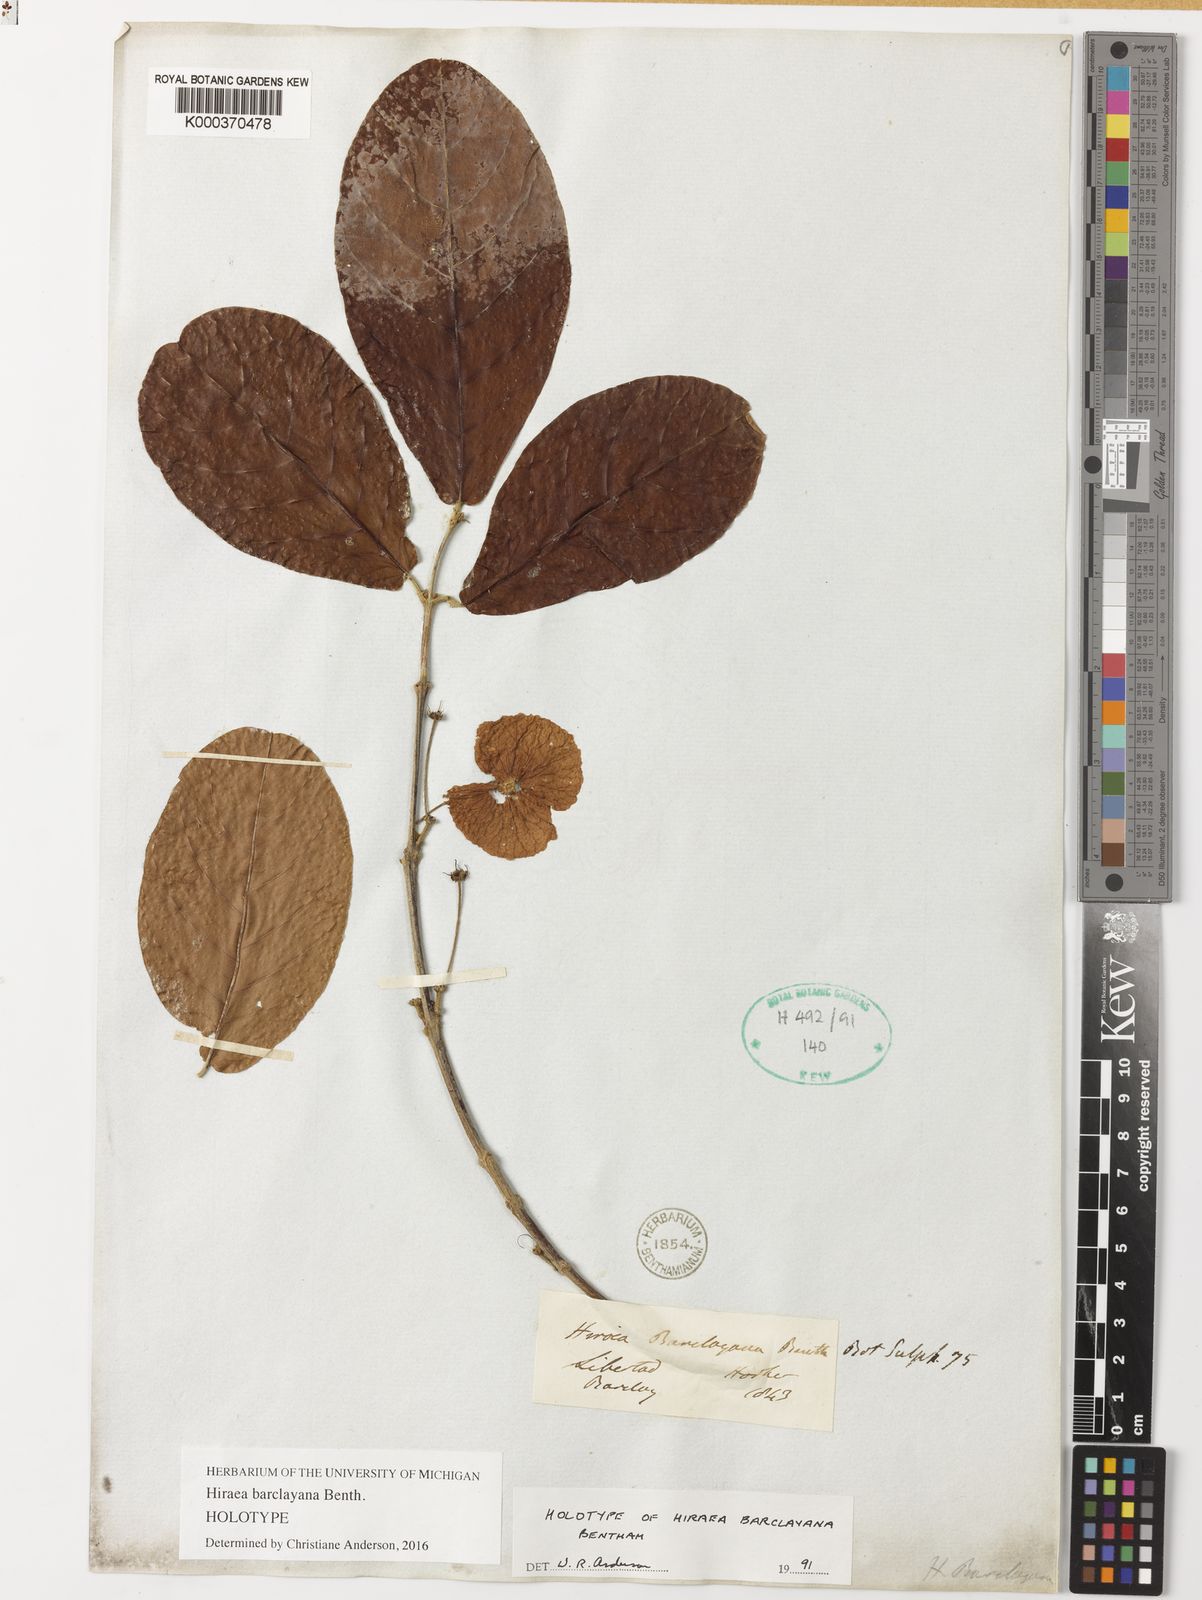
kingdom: Plantae
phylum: Tracheophyta
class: Magnoliopsida
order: Malpighiales
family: Malpighiaceae
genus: Hiraea
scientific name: Hiraea barclayana
